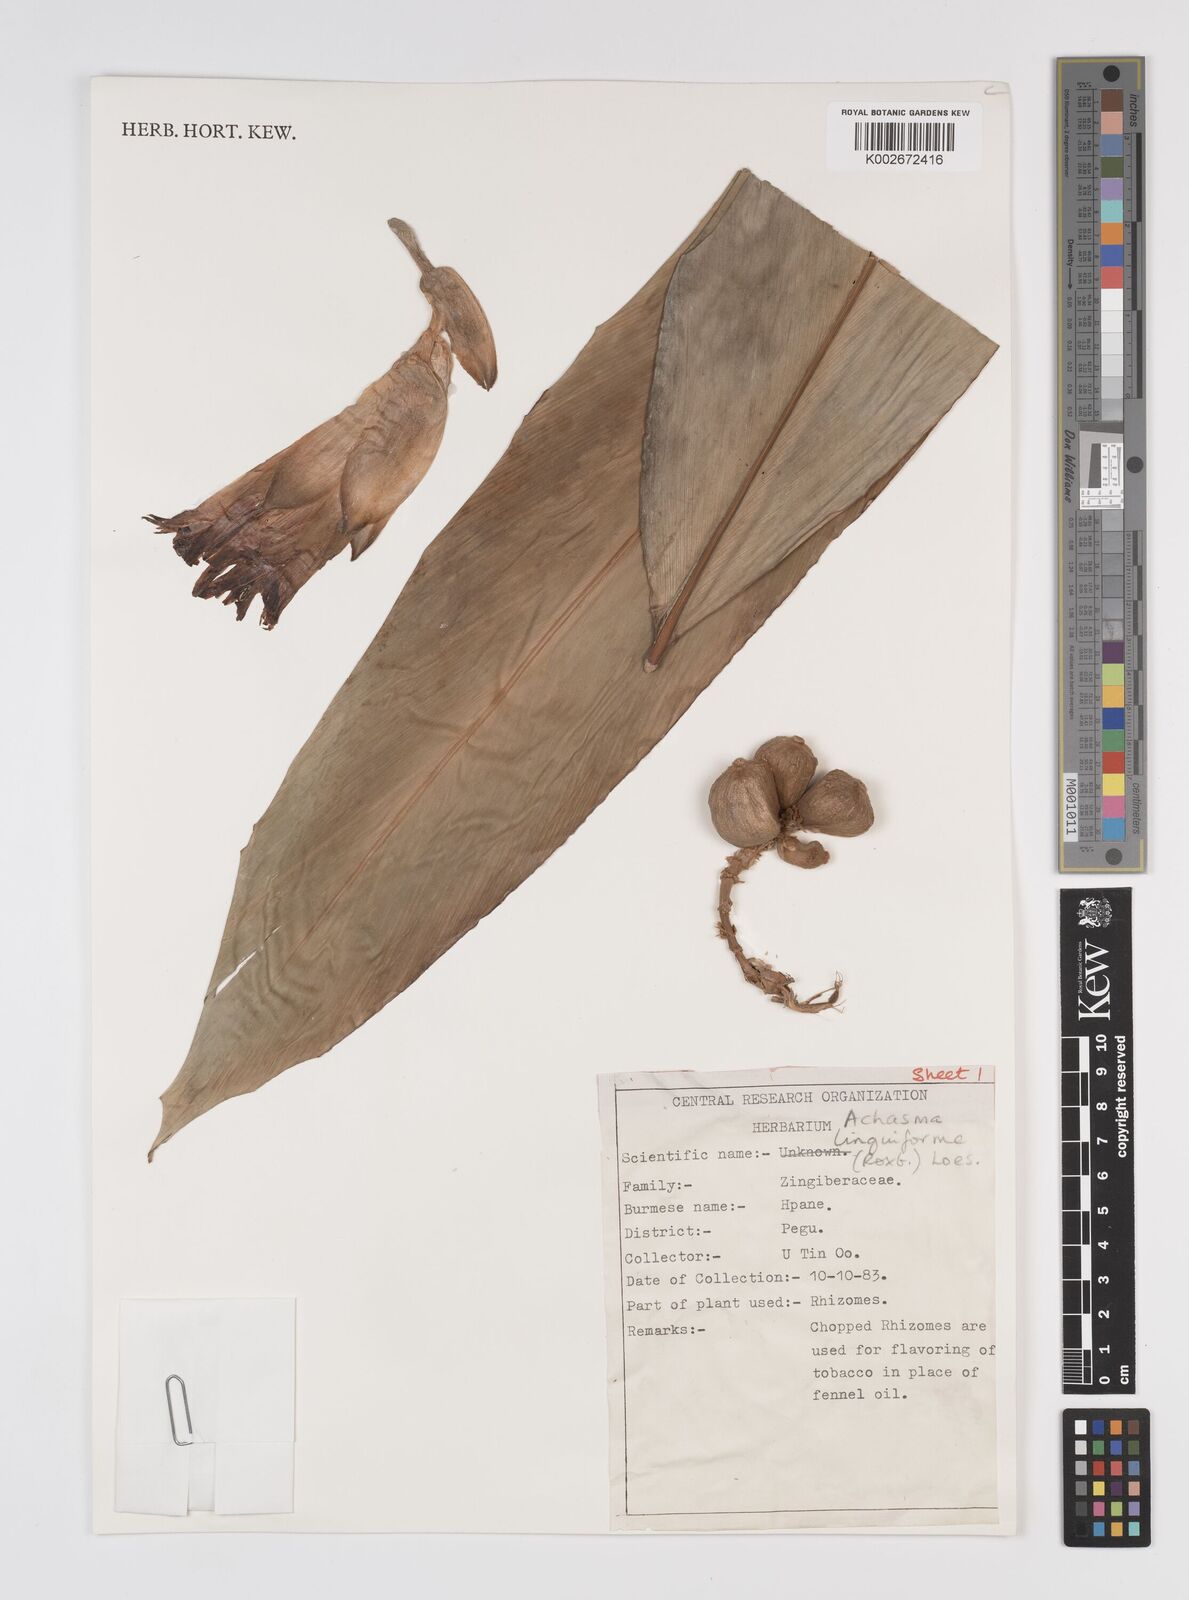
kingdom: Plantae
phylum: Tracheophyta
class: Liliopsida
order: Zingiberales
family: Zingiberaceae
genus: Etlingera
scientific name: Etlingera linguiformis
